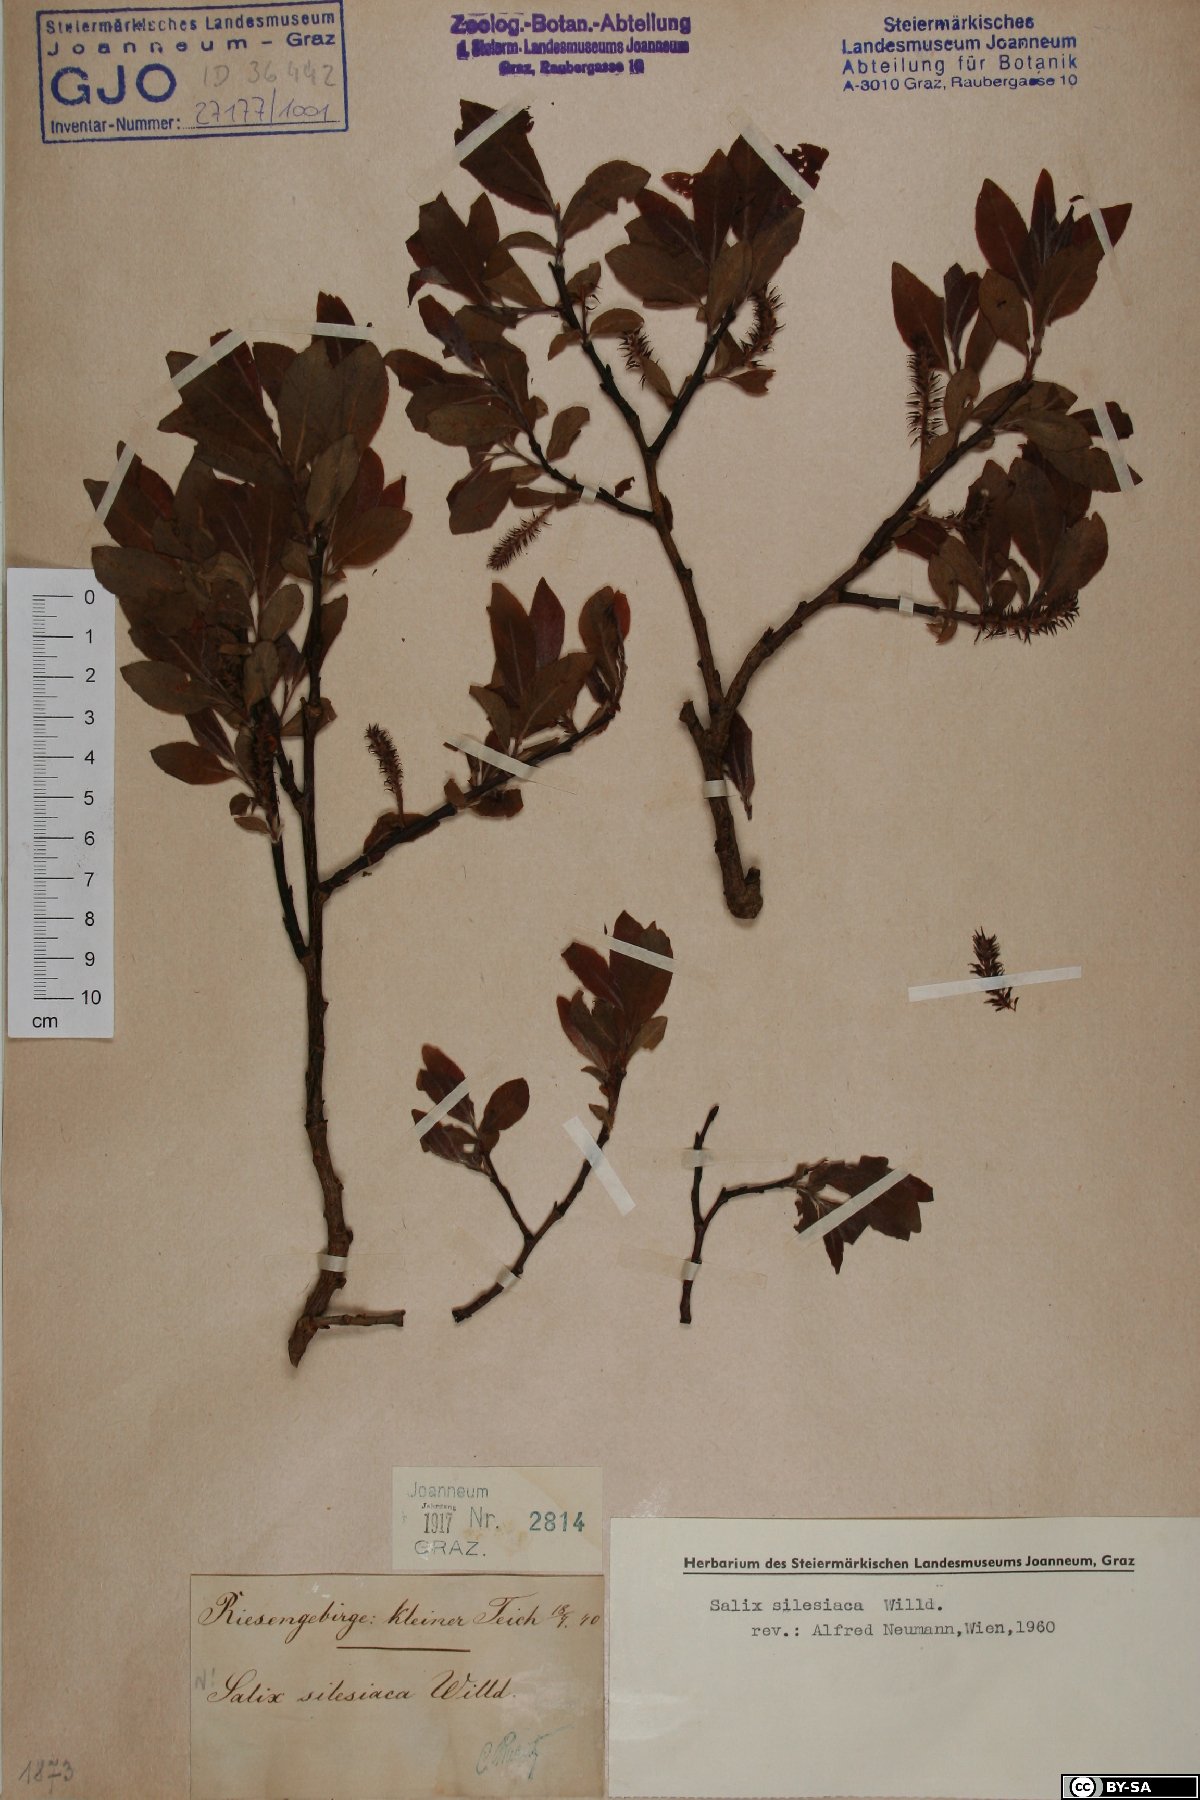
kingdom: Plantae
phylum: Tracheophyta
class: Magnoliopsida
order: Malpighiales
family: Salicaceae
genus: Salix
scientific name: Salix silesiaca
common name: Silesian willow
